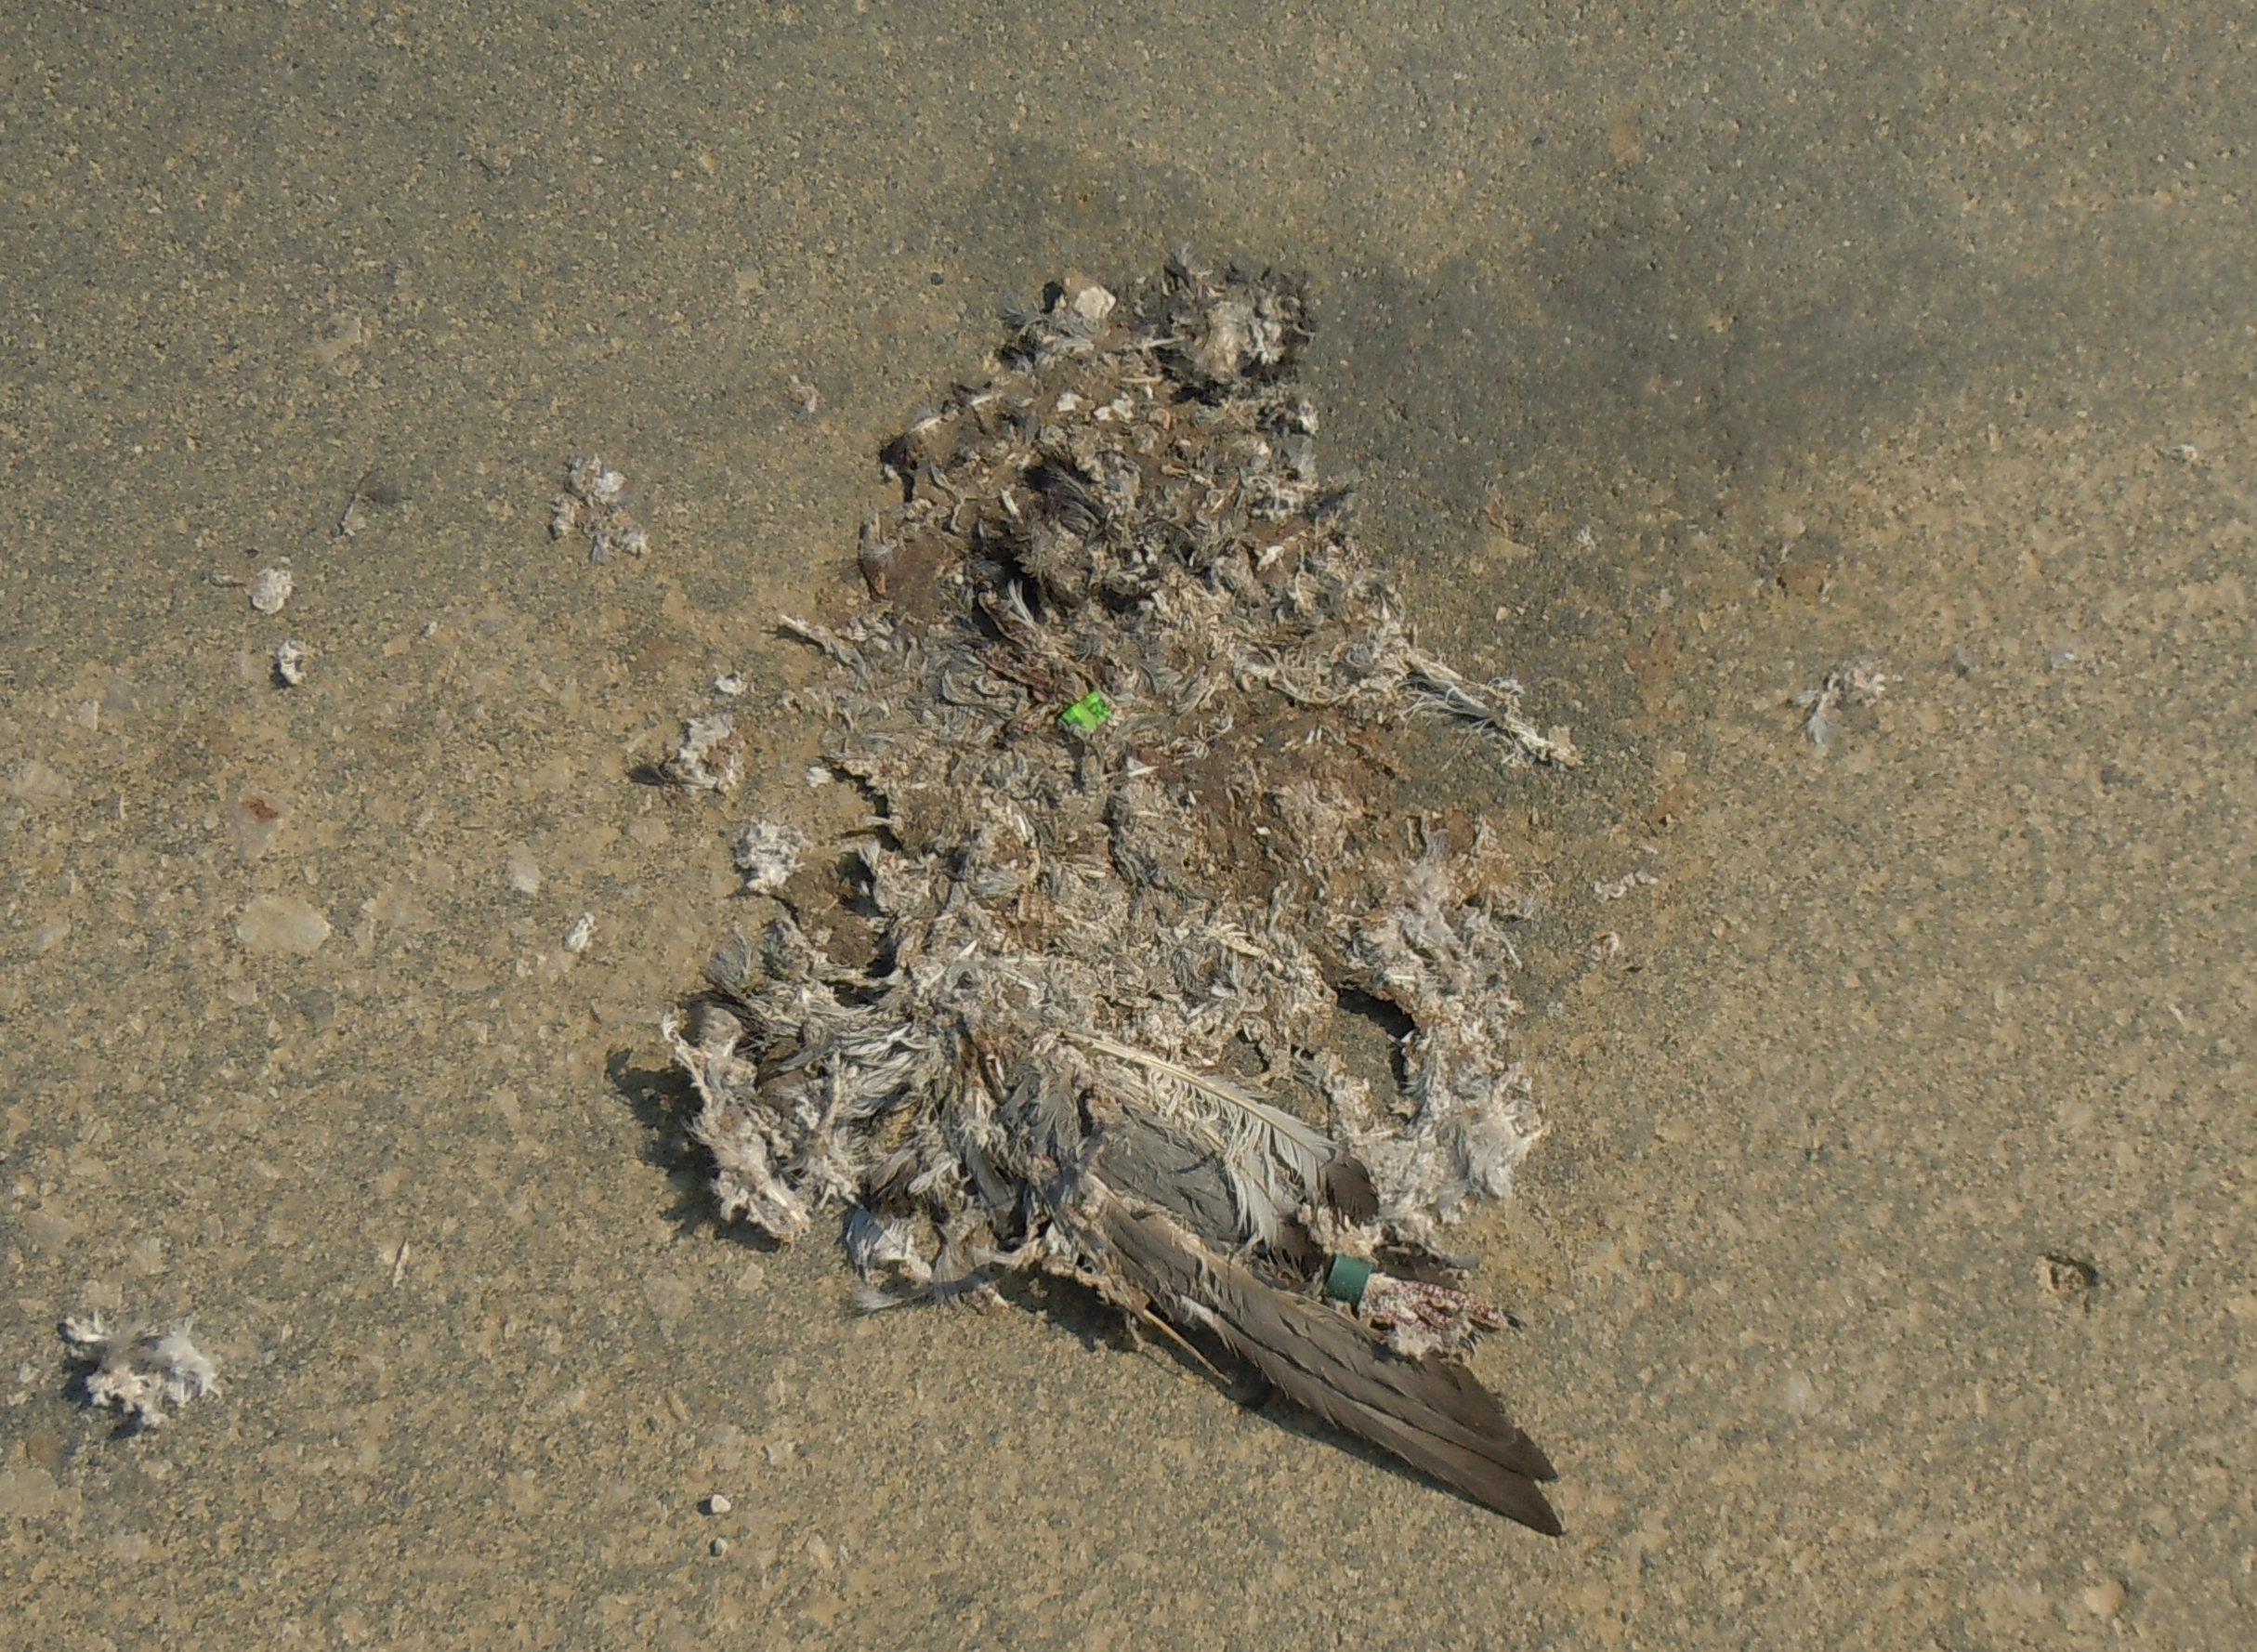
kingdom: Animalia
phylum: Chordata
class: Aves
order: Columbiformes
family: Columbidae
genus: Columba
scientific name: Columba livia
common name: Rock pigeon
